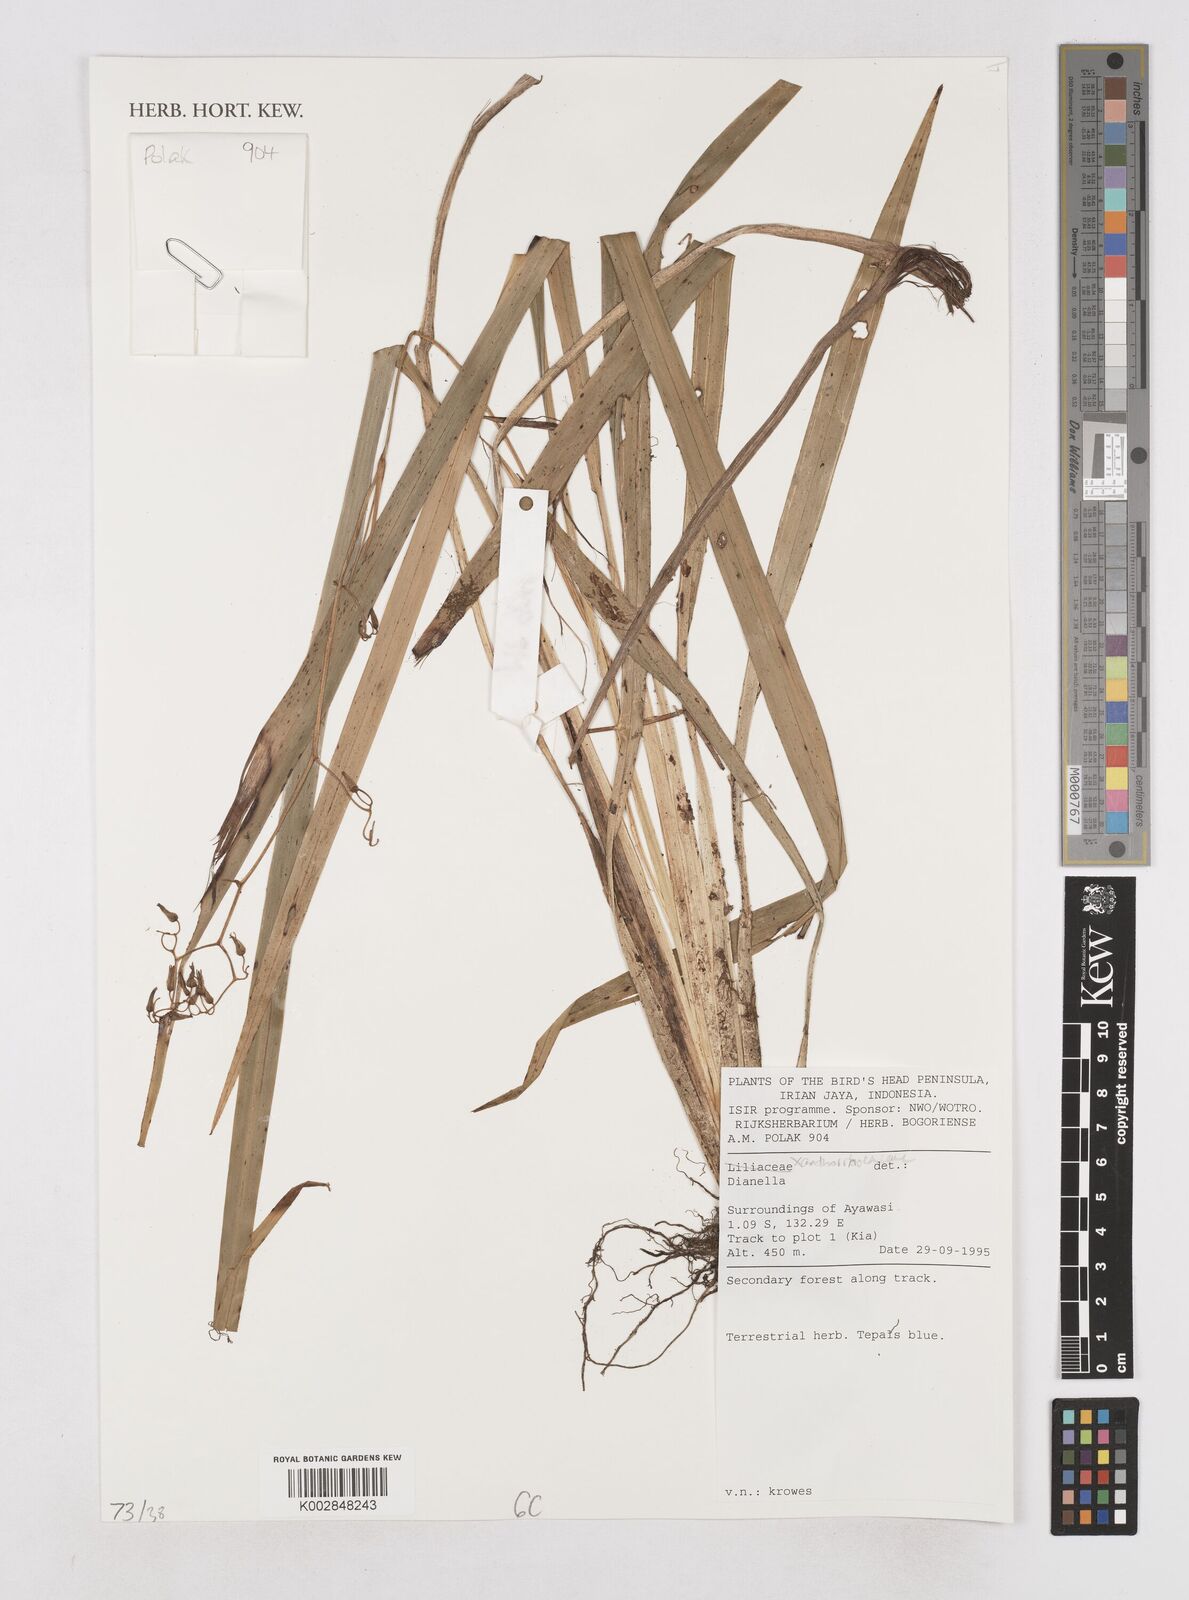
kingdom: Plantae
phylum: Tracheophyta
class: Liliopsida
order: Asparagales
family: Asphodelaceae
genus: Dianella
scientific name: Dianella
